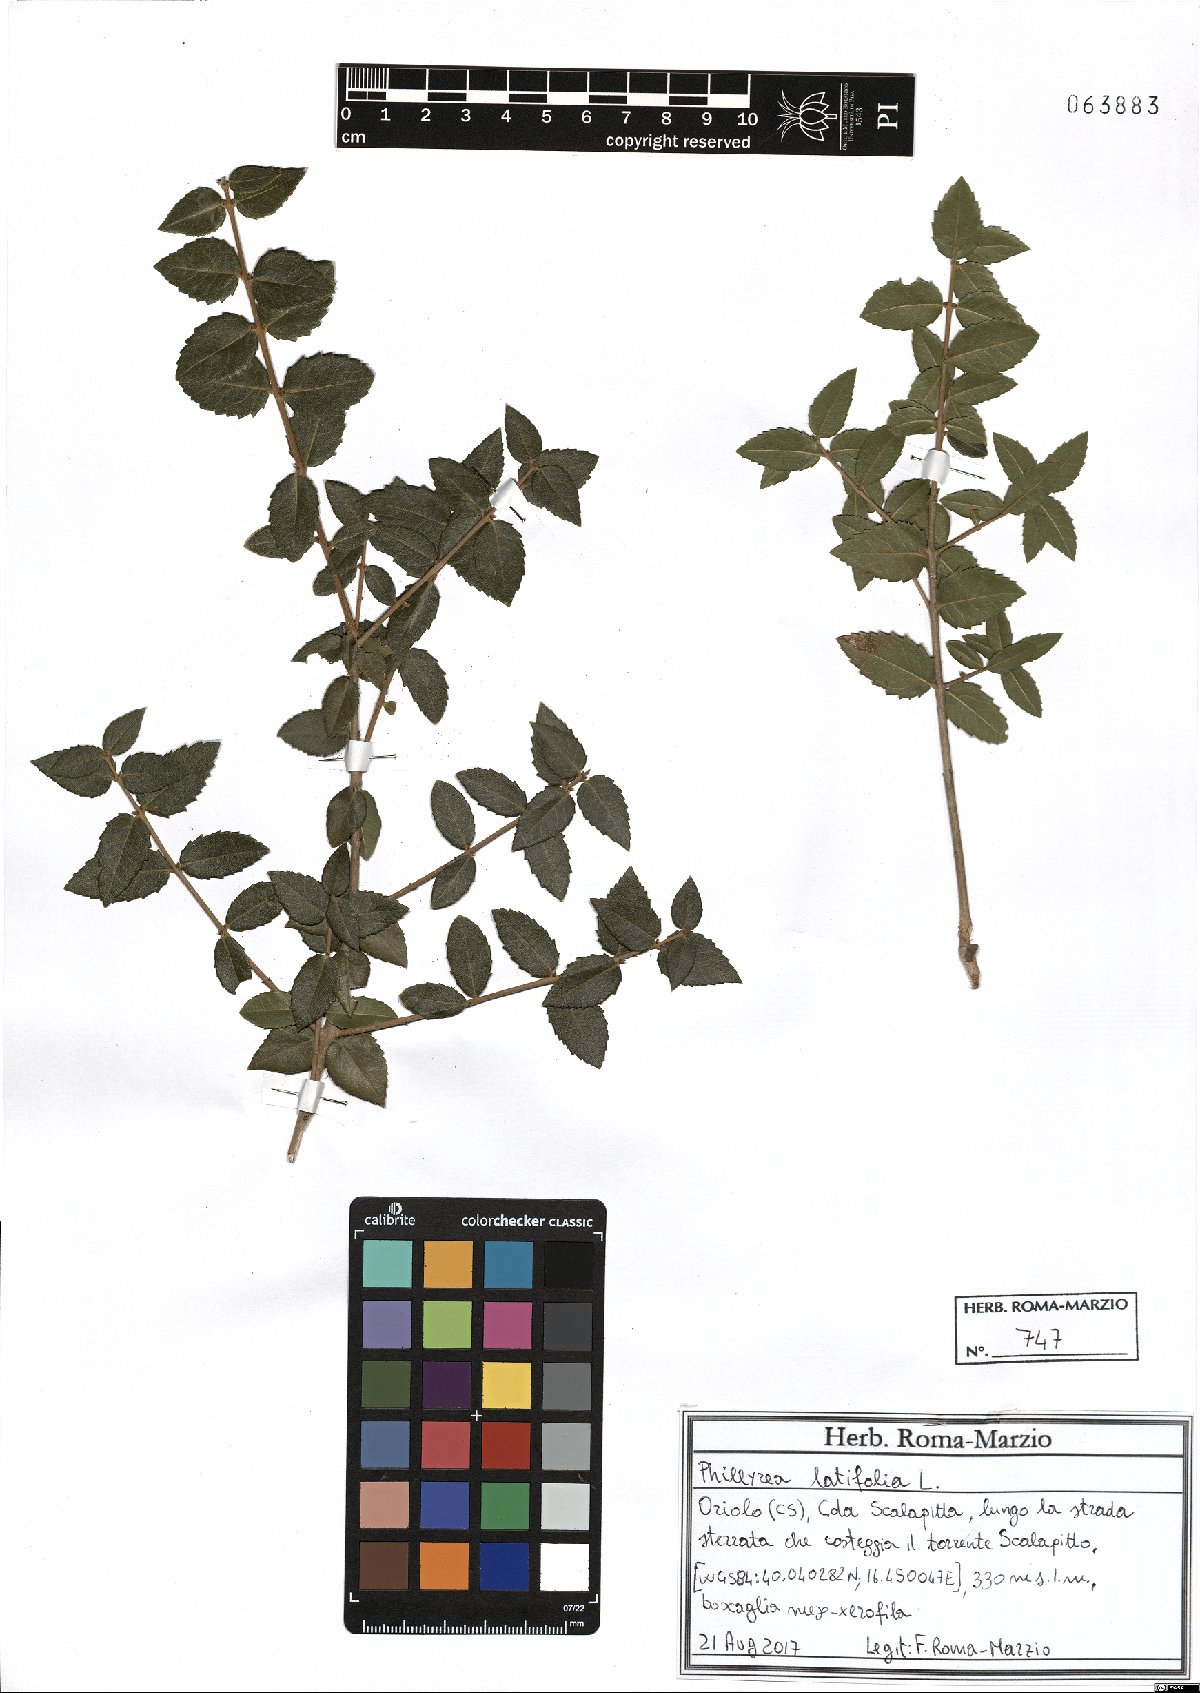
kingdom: Plantae
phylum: Tracheophyta
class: Magnoliopsida
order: Lamiales
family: Oleaceae
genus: Phillyrea
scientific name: Phillyrea latifolia
